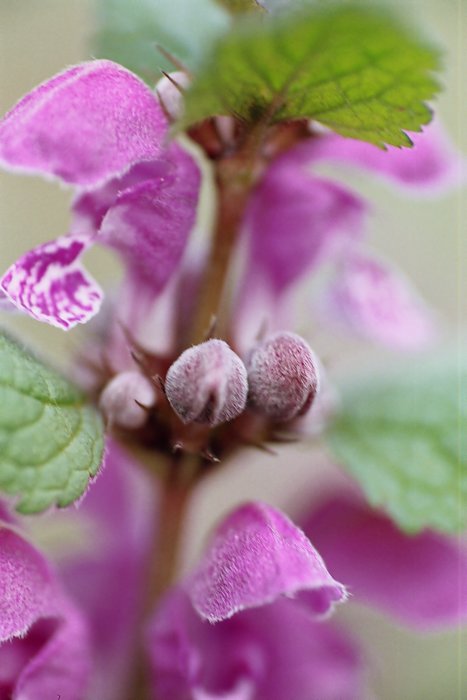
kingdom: Plantae
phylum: Tracheophyta
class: Magnoliopsida
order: Lamiales
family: Lamiaceae
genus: Lamium
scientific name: Lamium maculatum
